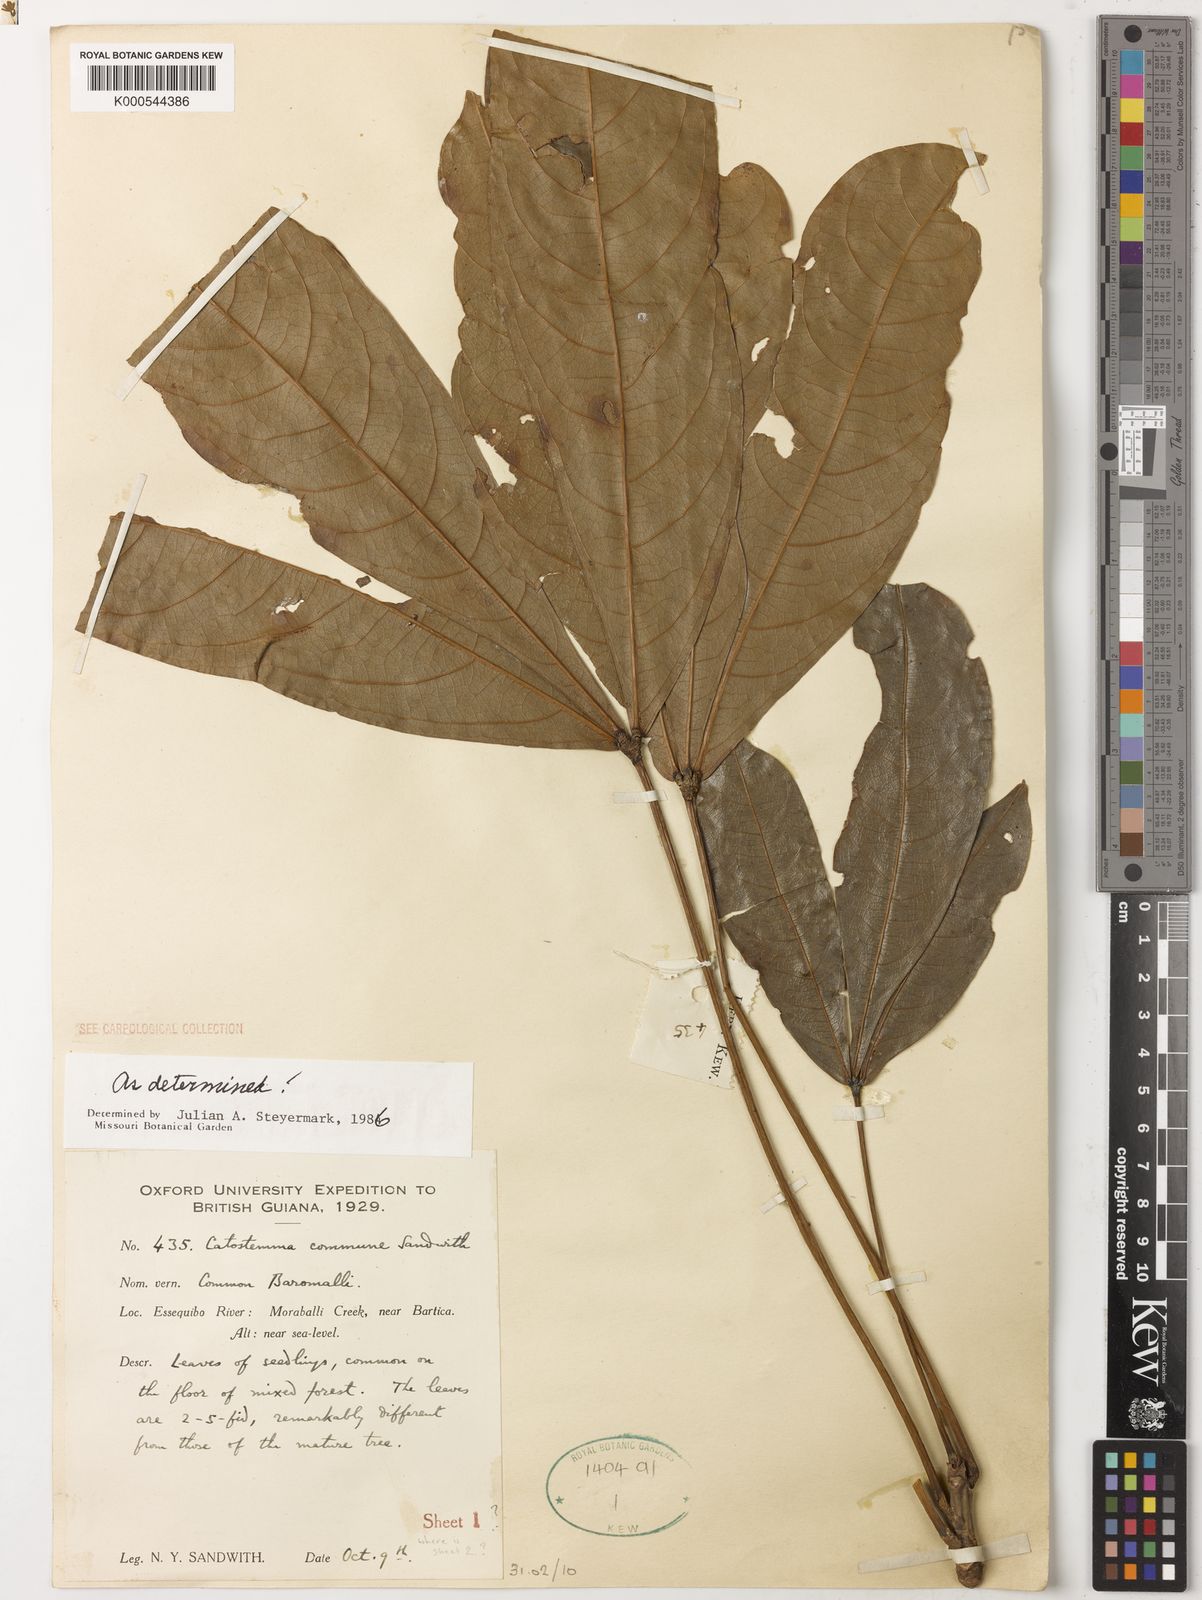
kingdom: Plantae
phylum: Tracheophyta
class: Magnoliopsida
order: Malvales
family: Malvaceae
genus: Catostemma
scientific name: Catostemma commune
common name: Baromalli
